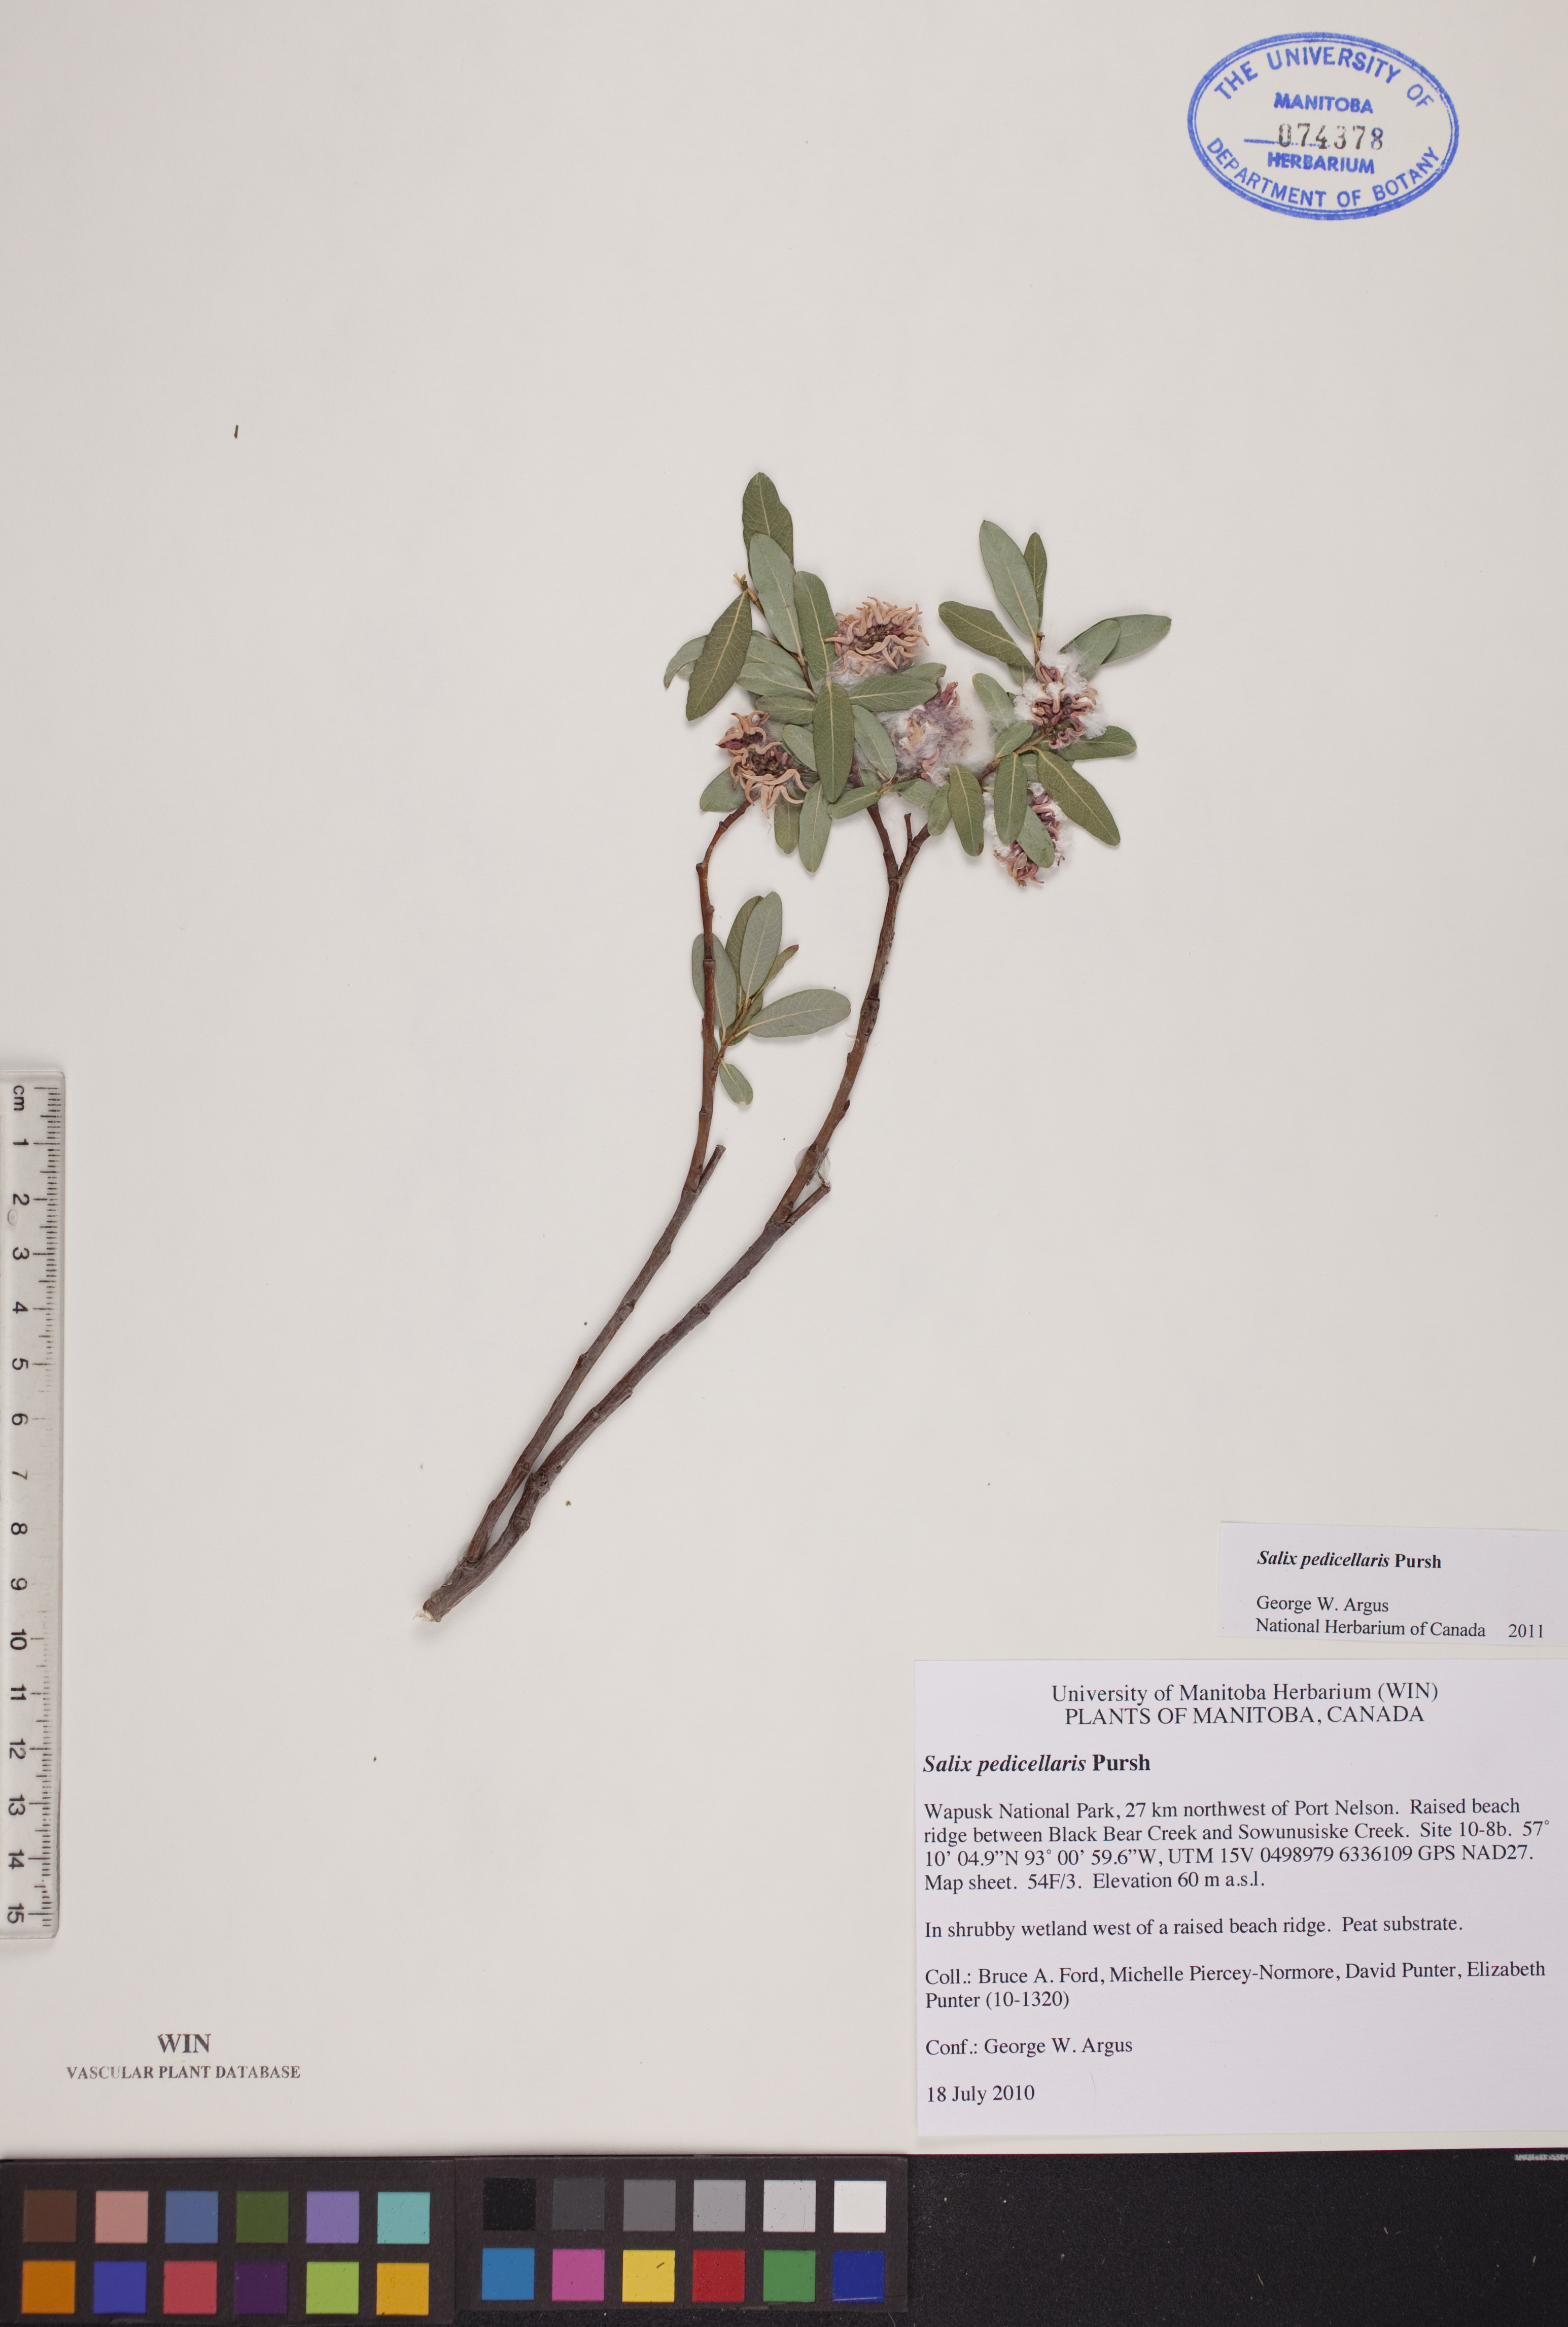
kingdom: Plantae
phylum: Tracheophyta
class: Magnoliopsida
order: Malpighiales
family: Salicaceae
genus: Salix
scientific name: Salix pedicellaris
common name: Bog willow
